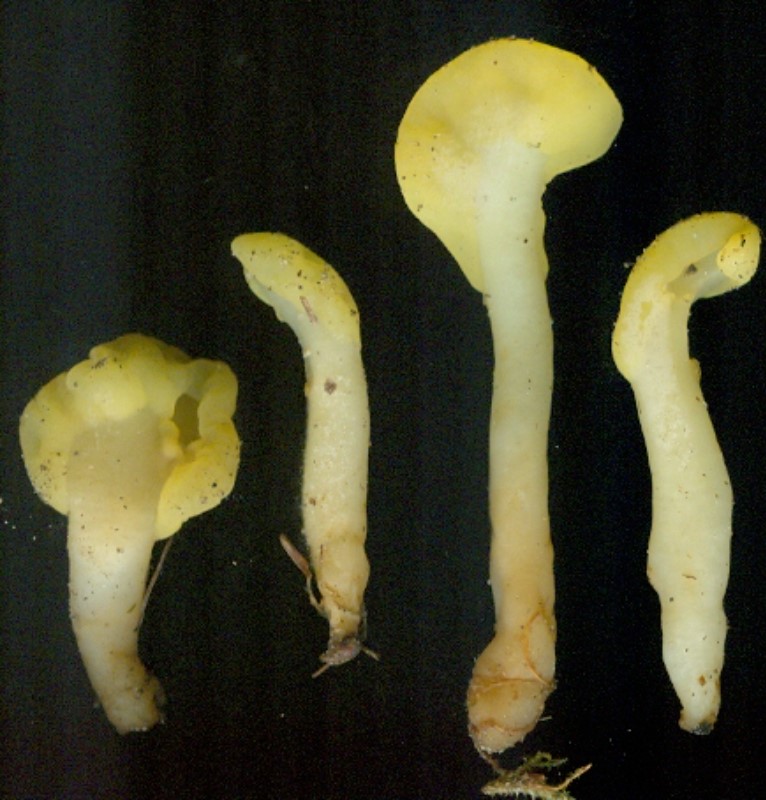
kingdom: Fungi
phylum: Ascomycota
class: Leotiomycetes
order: Rhytismatales
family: Cudoniaceae
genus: Spathularia
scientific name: Spathularia flavida
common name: gul spatelsvamp
